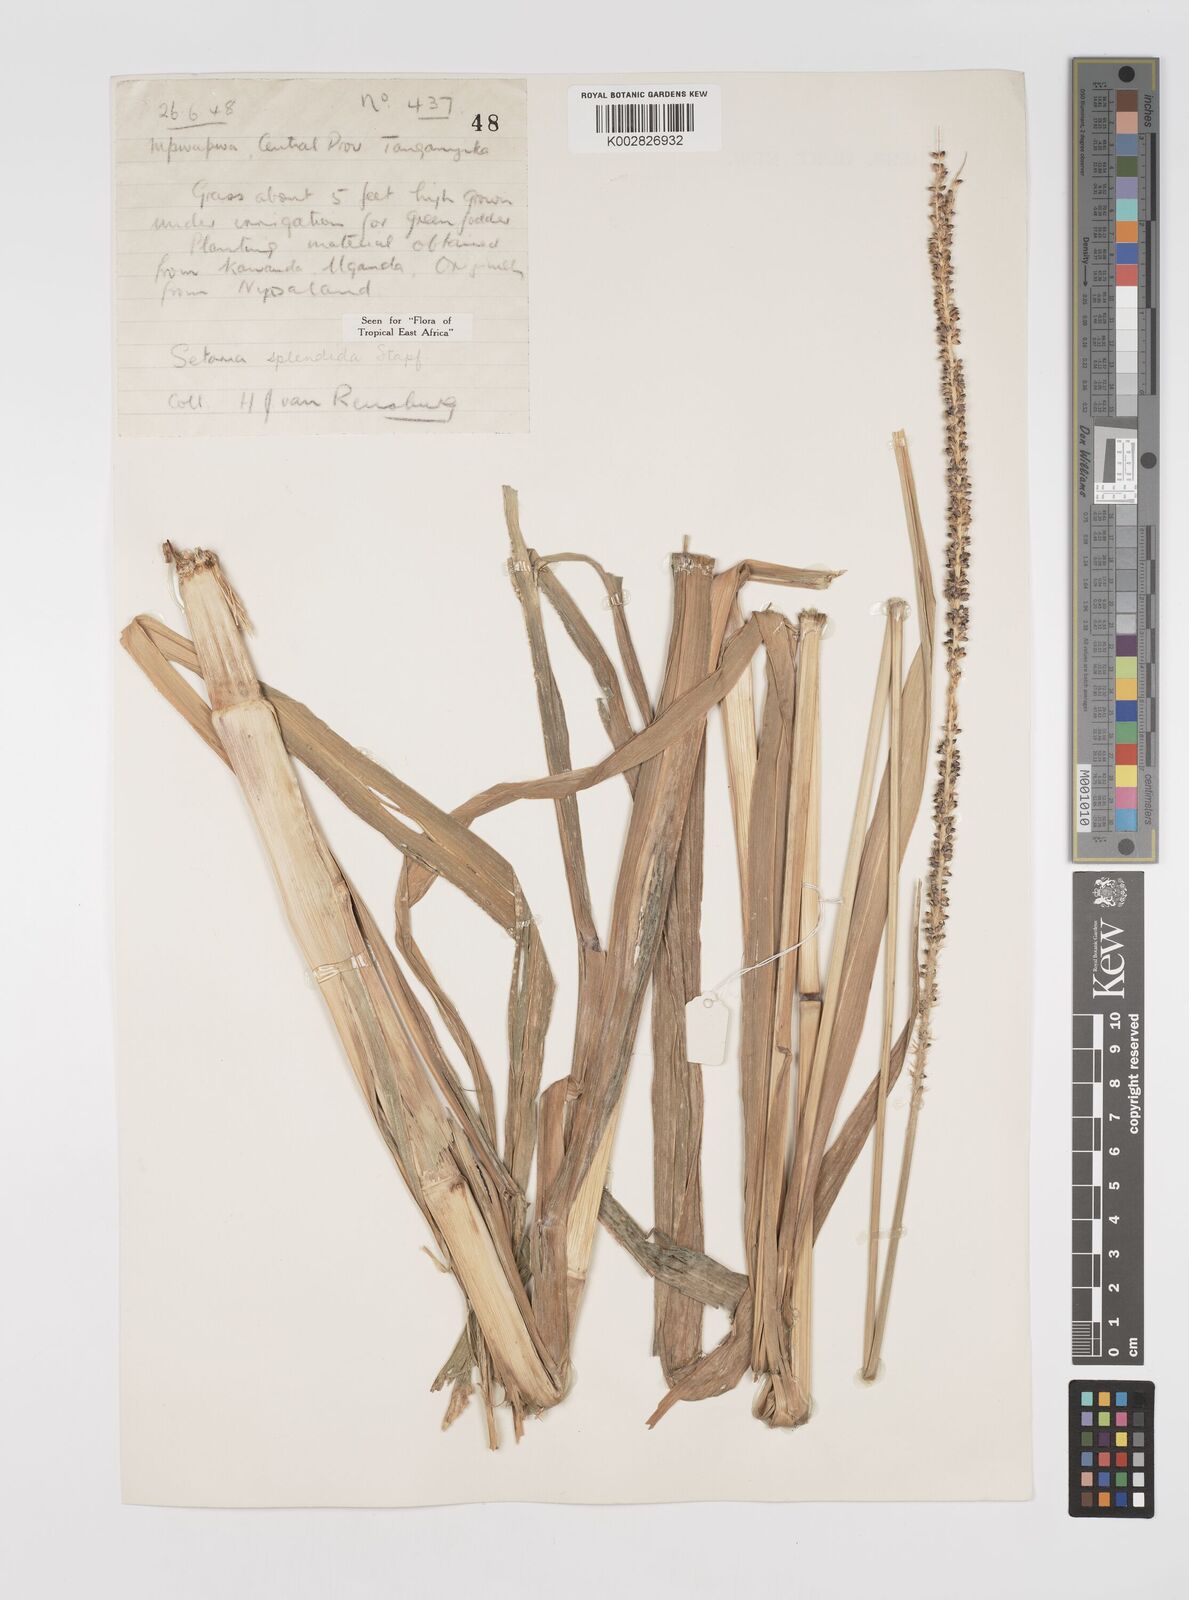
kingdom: Plantae
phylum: Tracheophyta
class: Liliopsida
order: Poales
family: Poaceae
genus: Setaria
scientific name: Setaria sphacelata
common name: African bristlegrass
